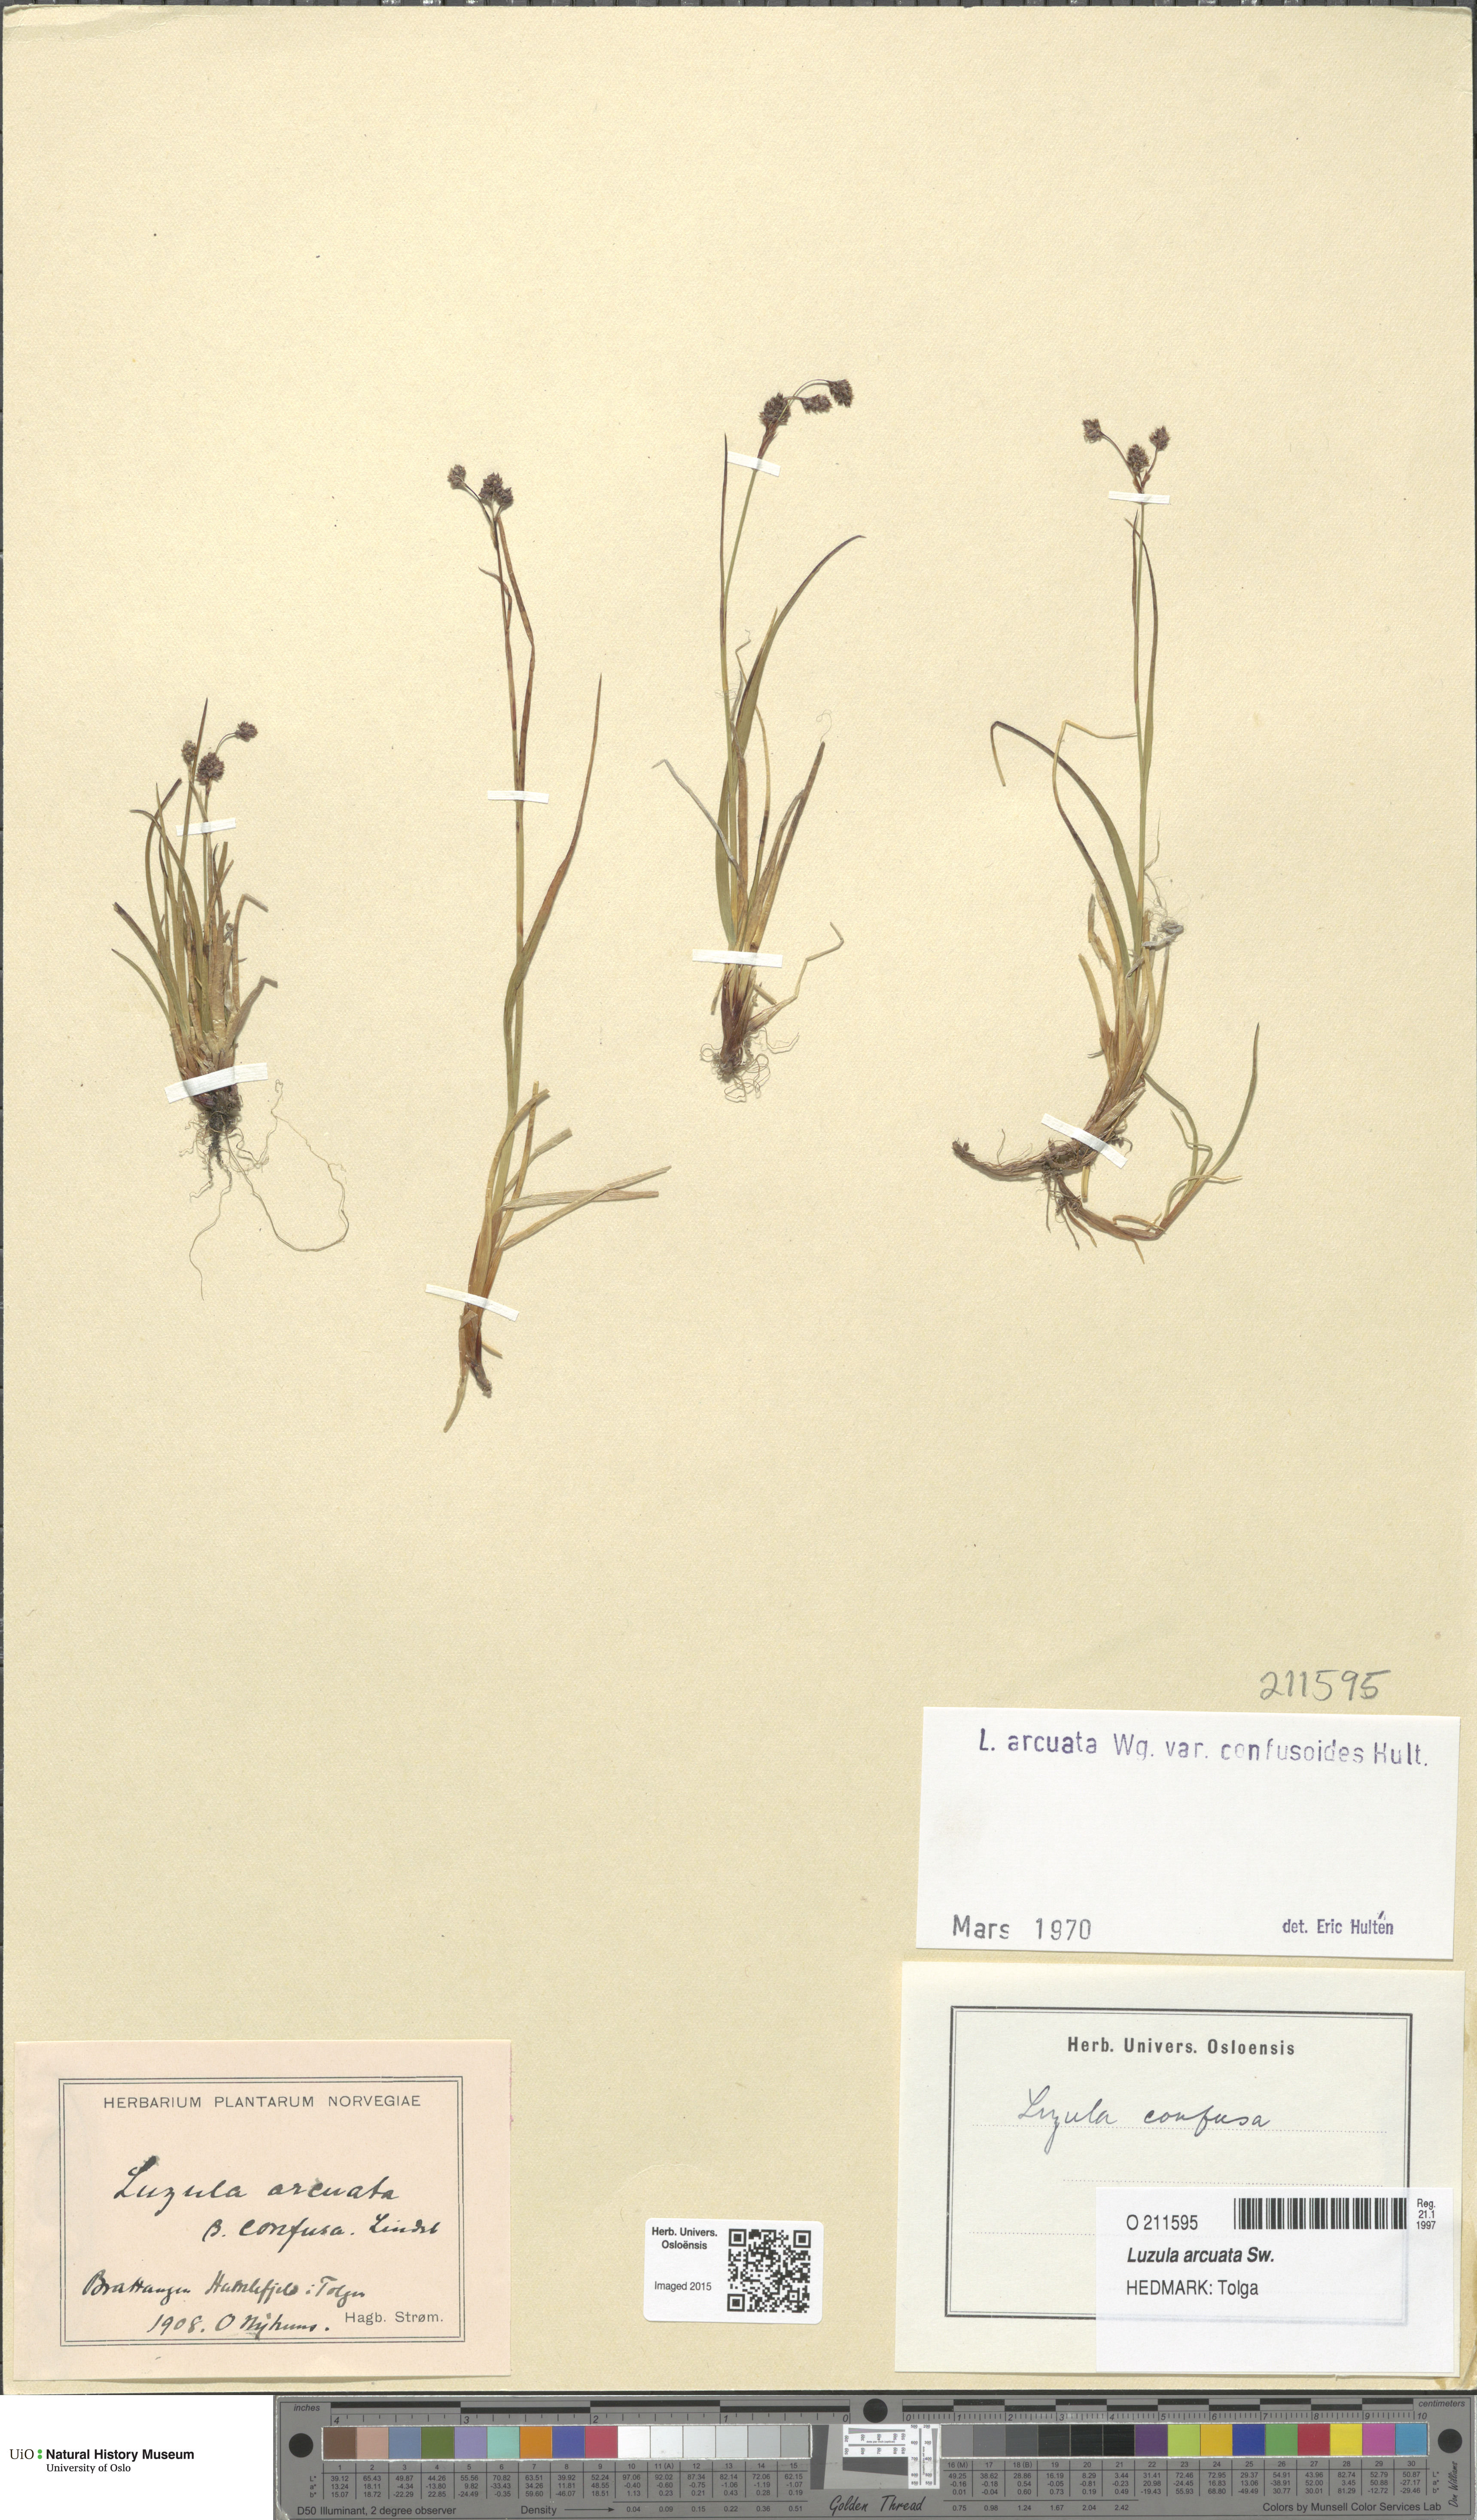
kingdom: Plantae
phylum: Tracheophyta
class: Liliopsida
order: Poales
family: Juncaceae
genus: Luzula
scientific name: Luzula arcuata
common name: Curved wood-rush
